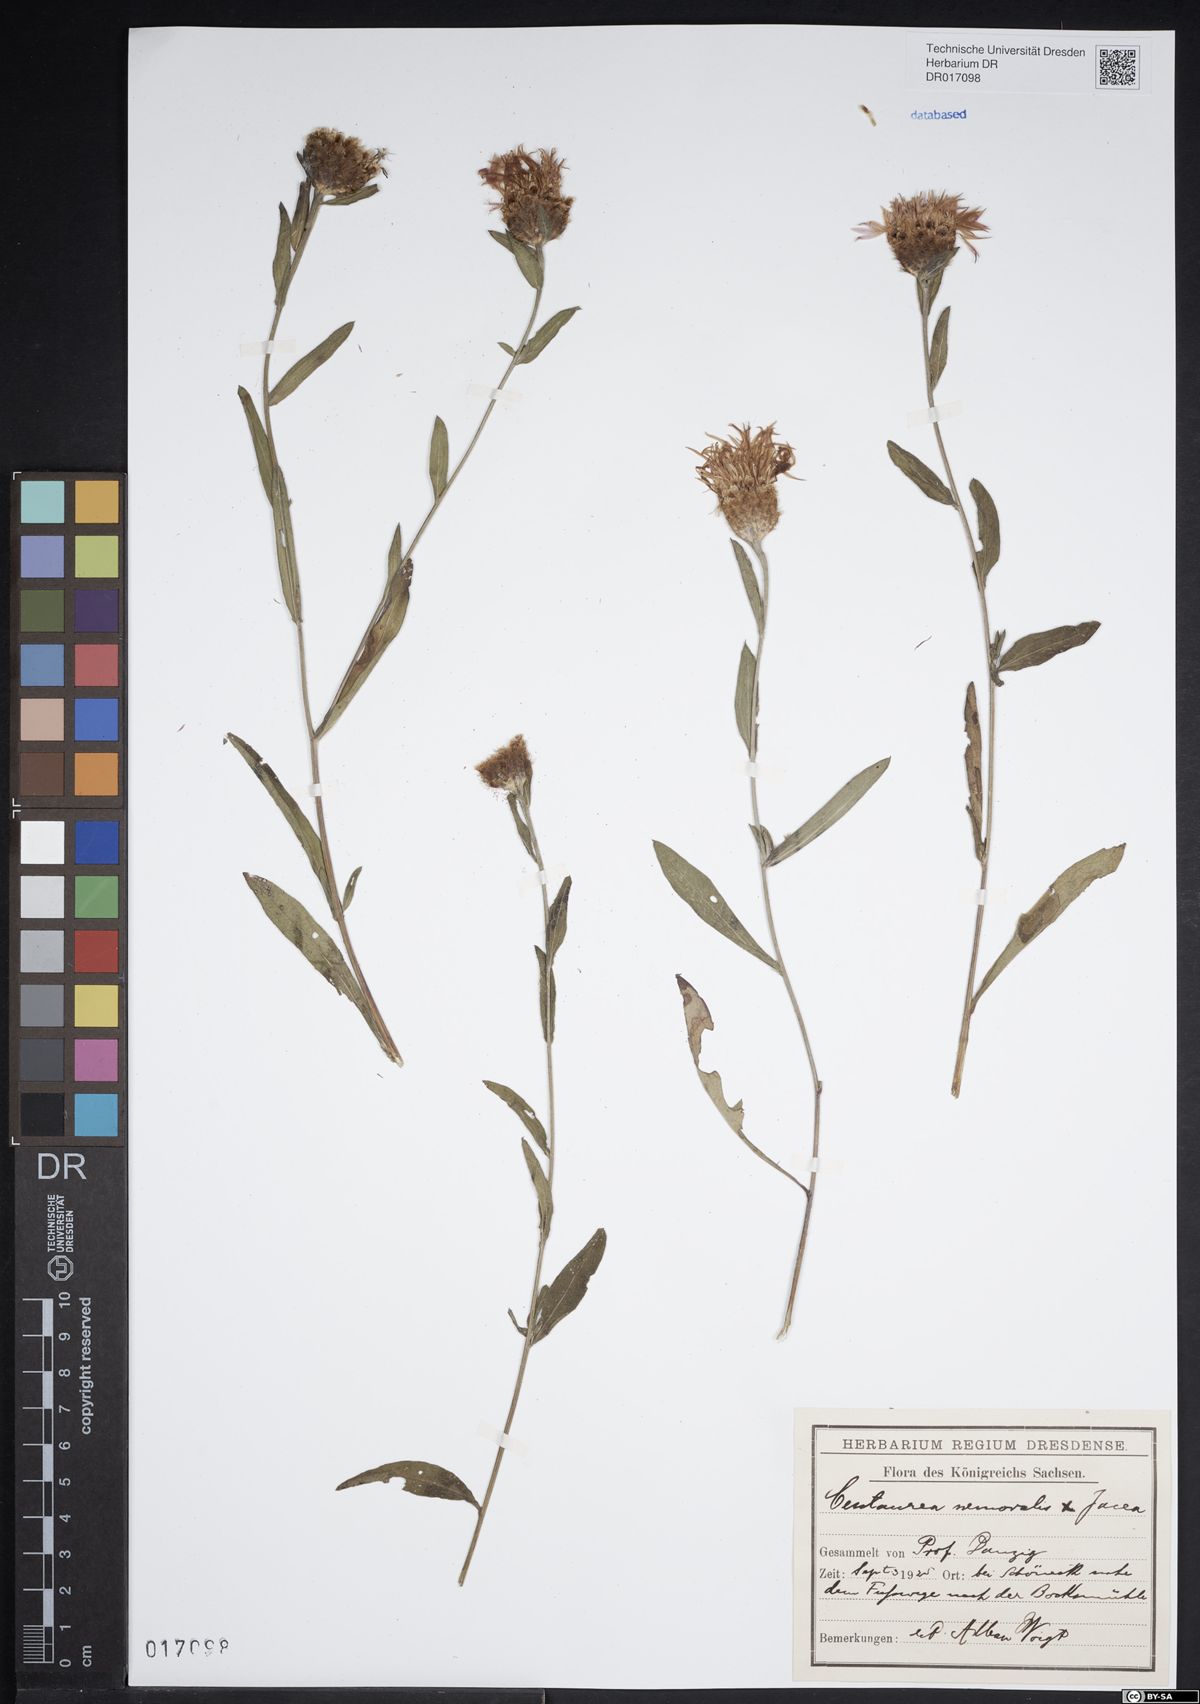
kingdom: Plantae
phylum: Tracheophyta
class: Magnoliopsida
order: Asterales
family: Asteraceae
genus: Centaurea
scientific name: Centaurea gerstlaueri
